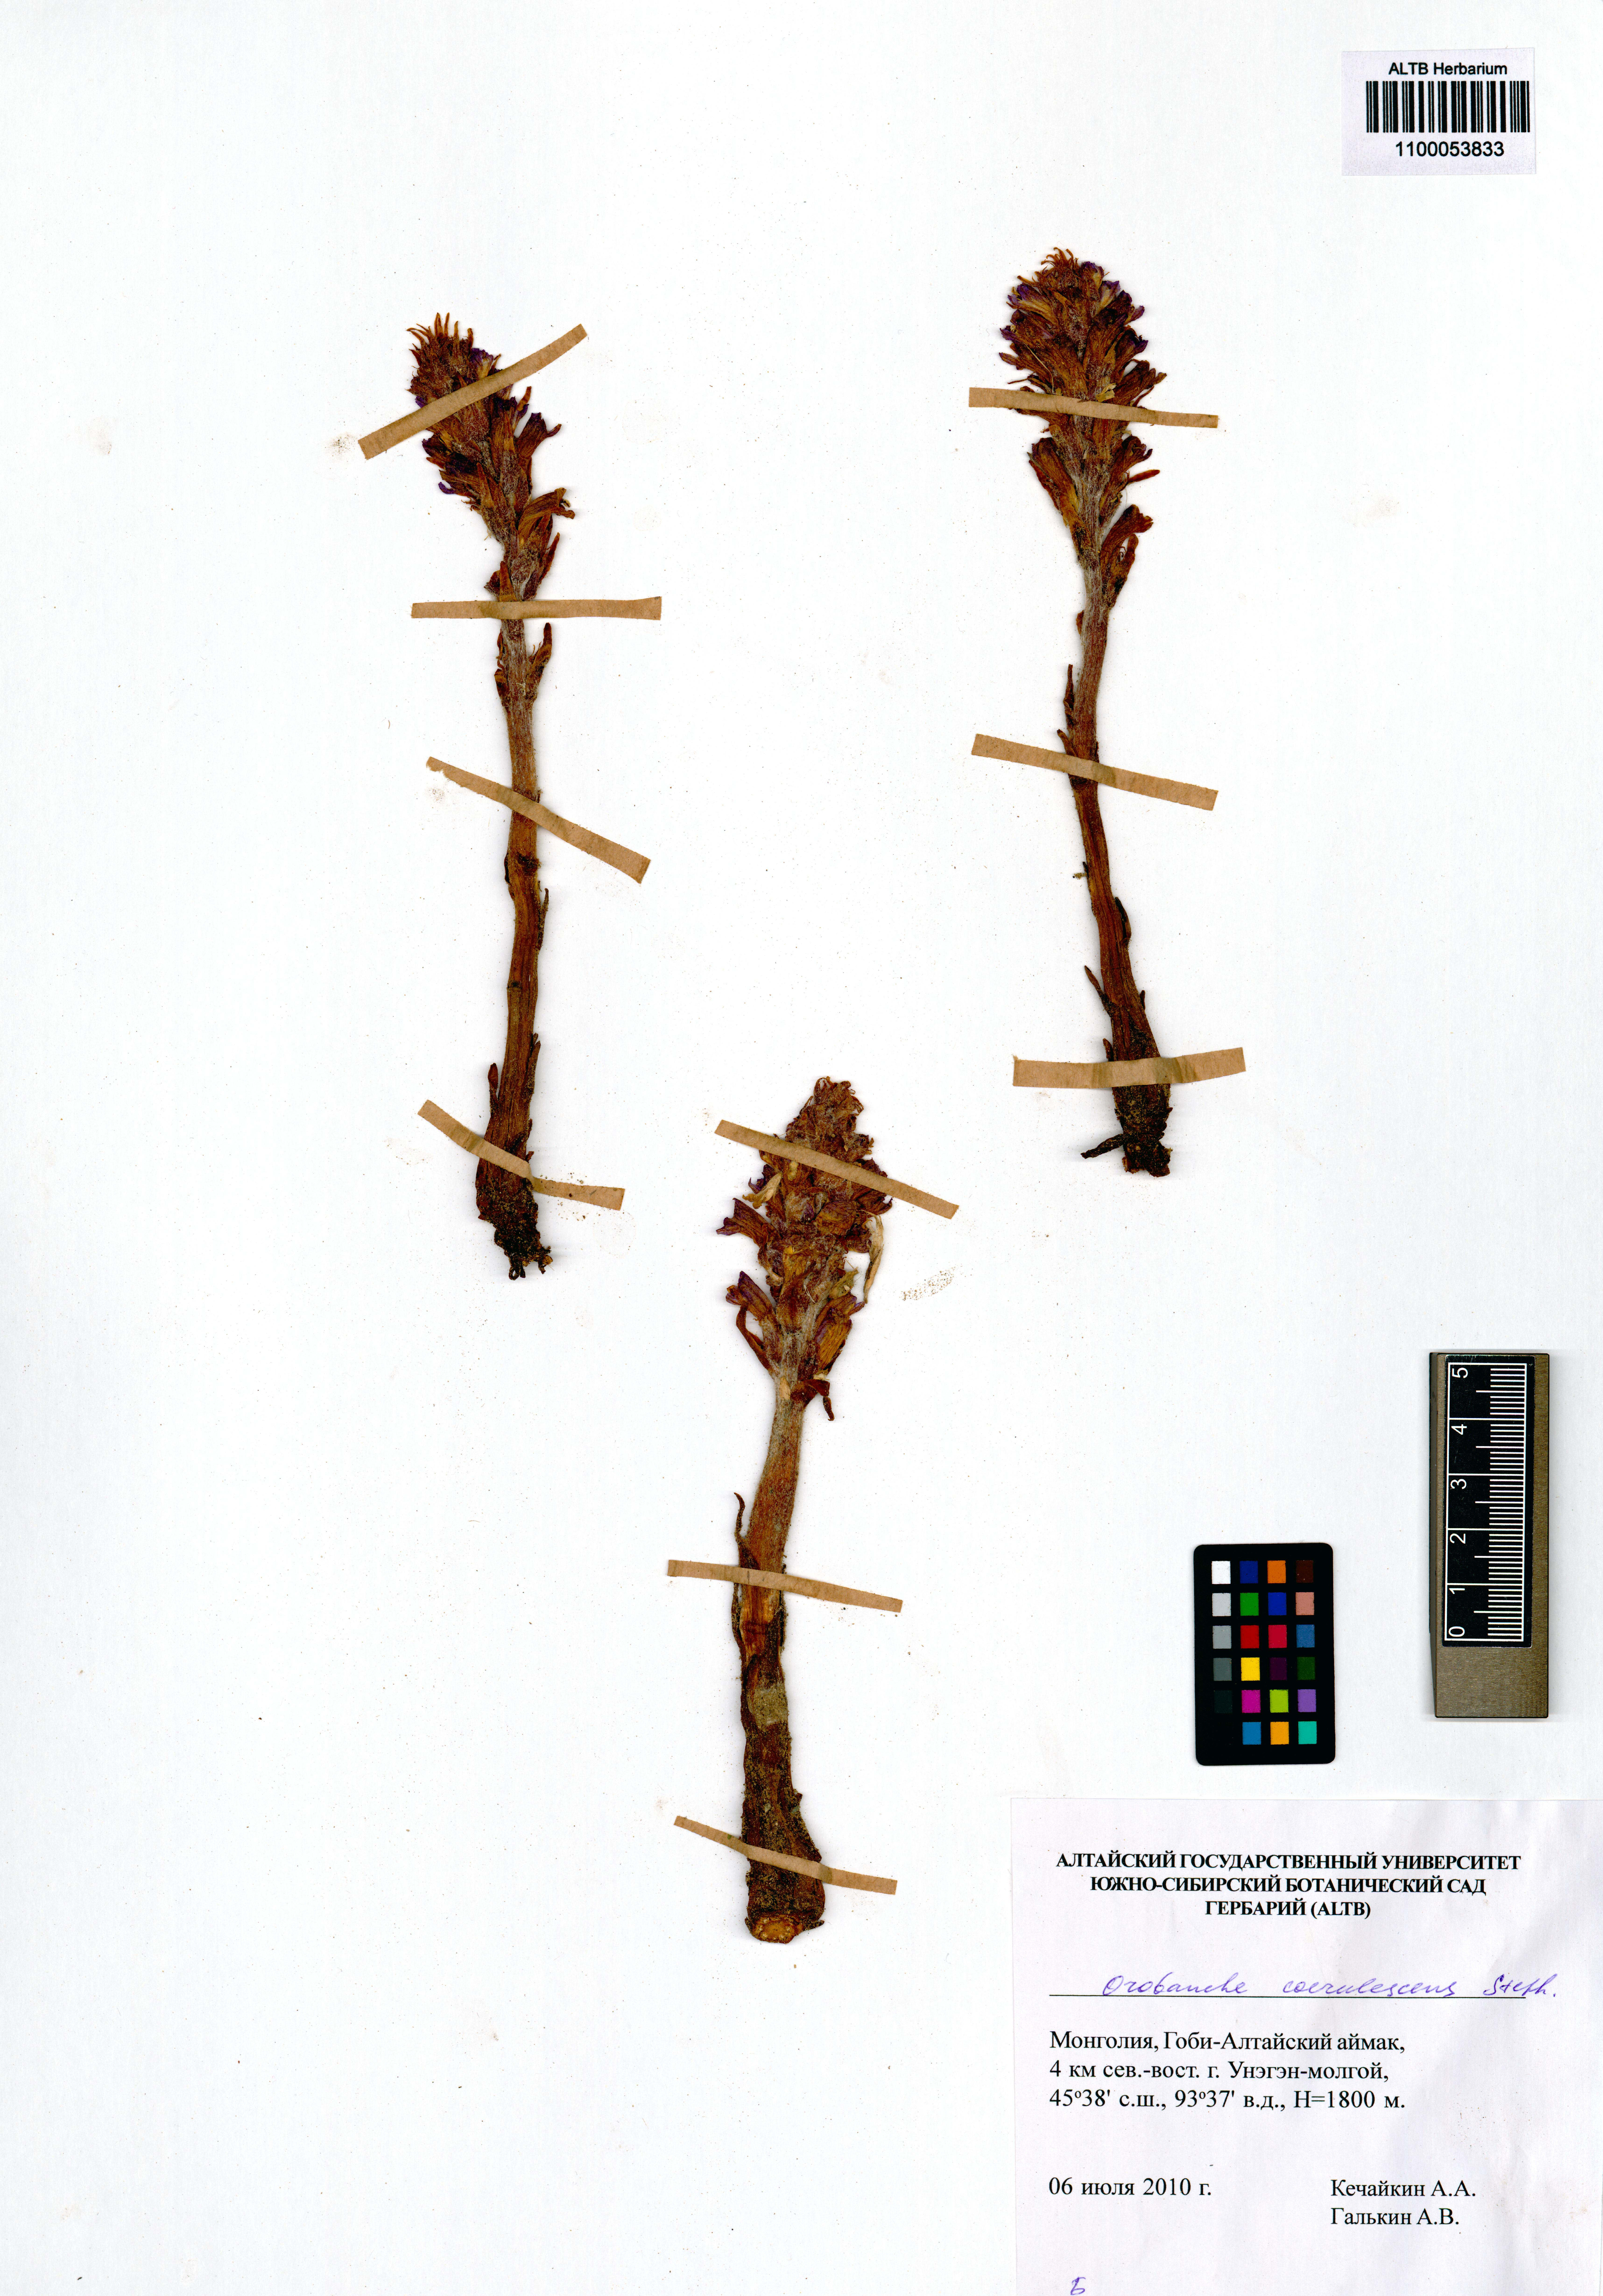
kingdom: Plantae
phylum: Tracheophyta
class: Magnoliopsida
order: Lamiales
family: Orobanchaceae
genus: Orobanche
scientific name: Orobanche coerulescens
